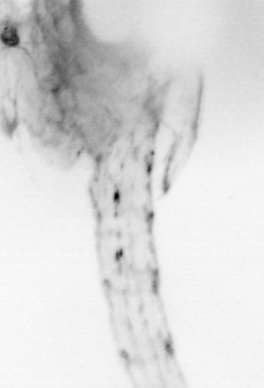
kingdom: Animalia
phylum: Arthropoda
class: Copepoda
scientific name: Copepoda
